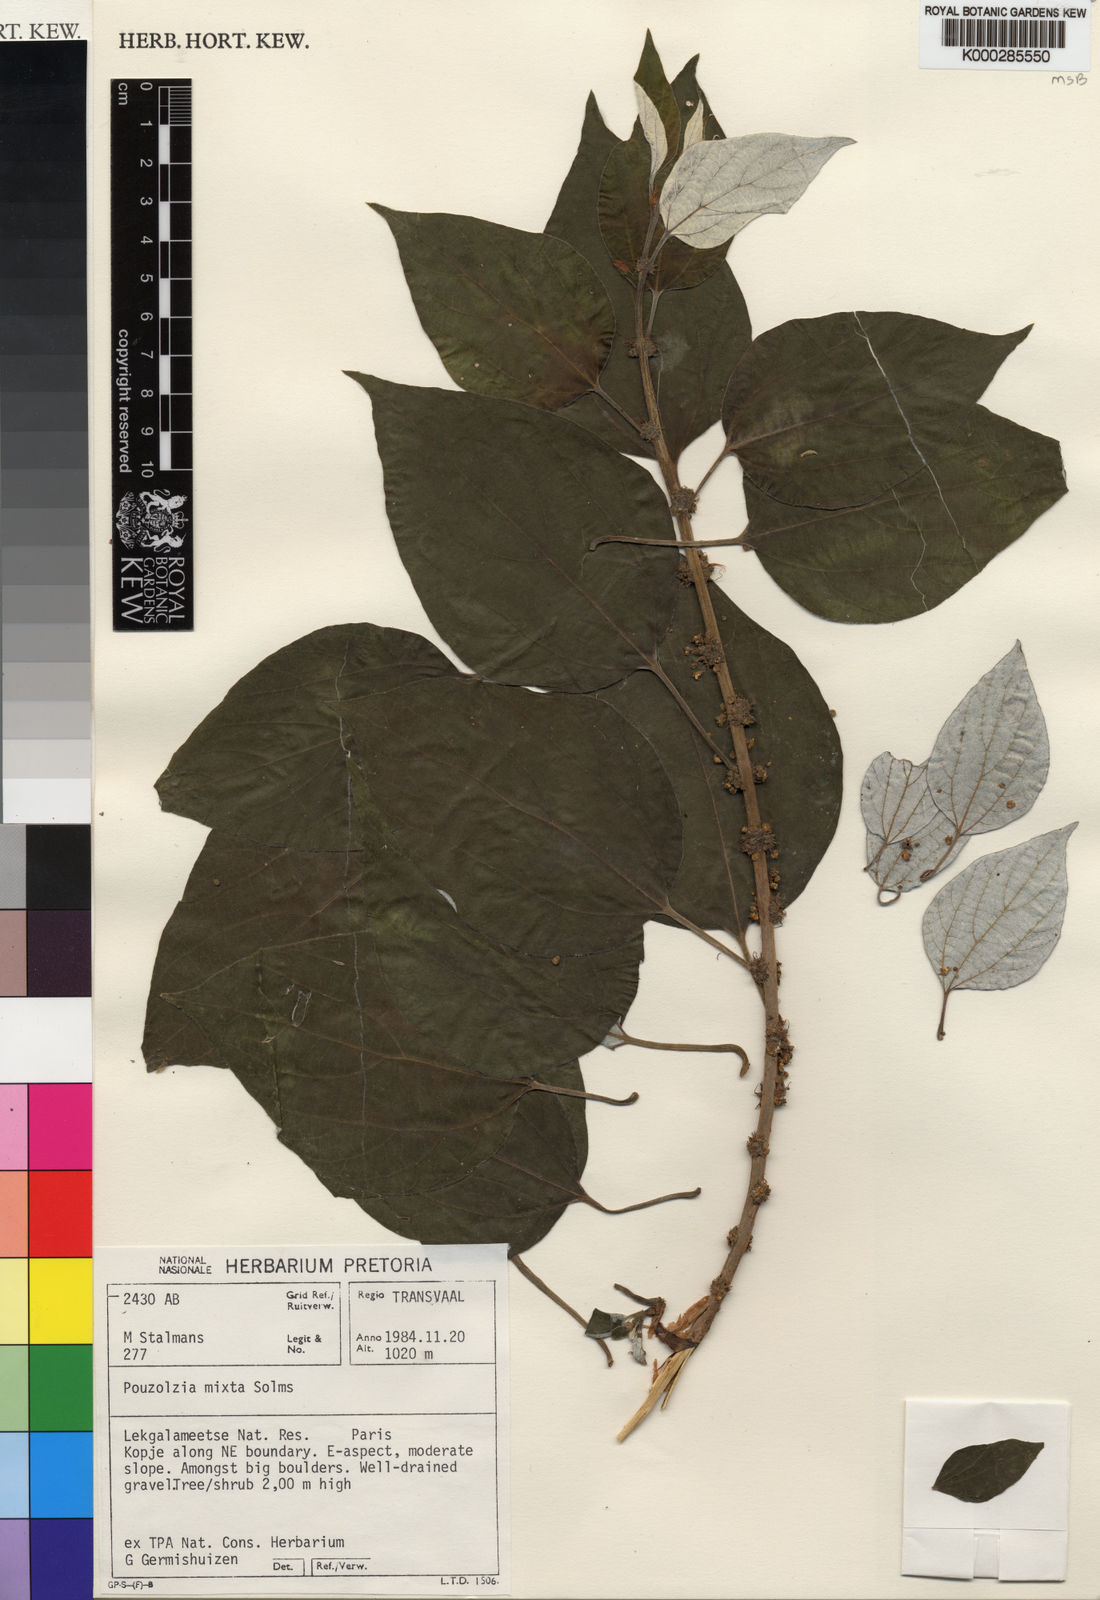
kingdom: Plantae
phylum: Tracheophyta
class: Magnoliopsida
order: Rosales
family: Urticaceae
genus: Pouzolzia
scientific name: Pouzolzia mixta
